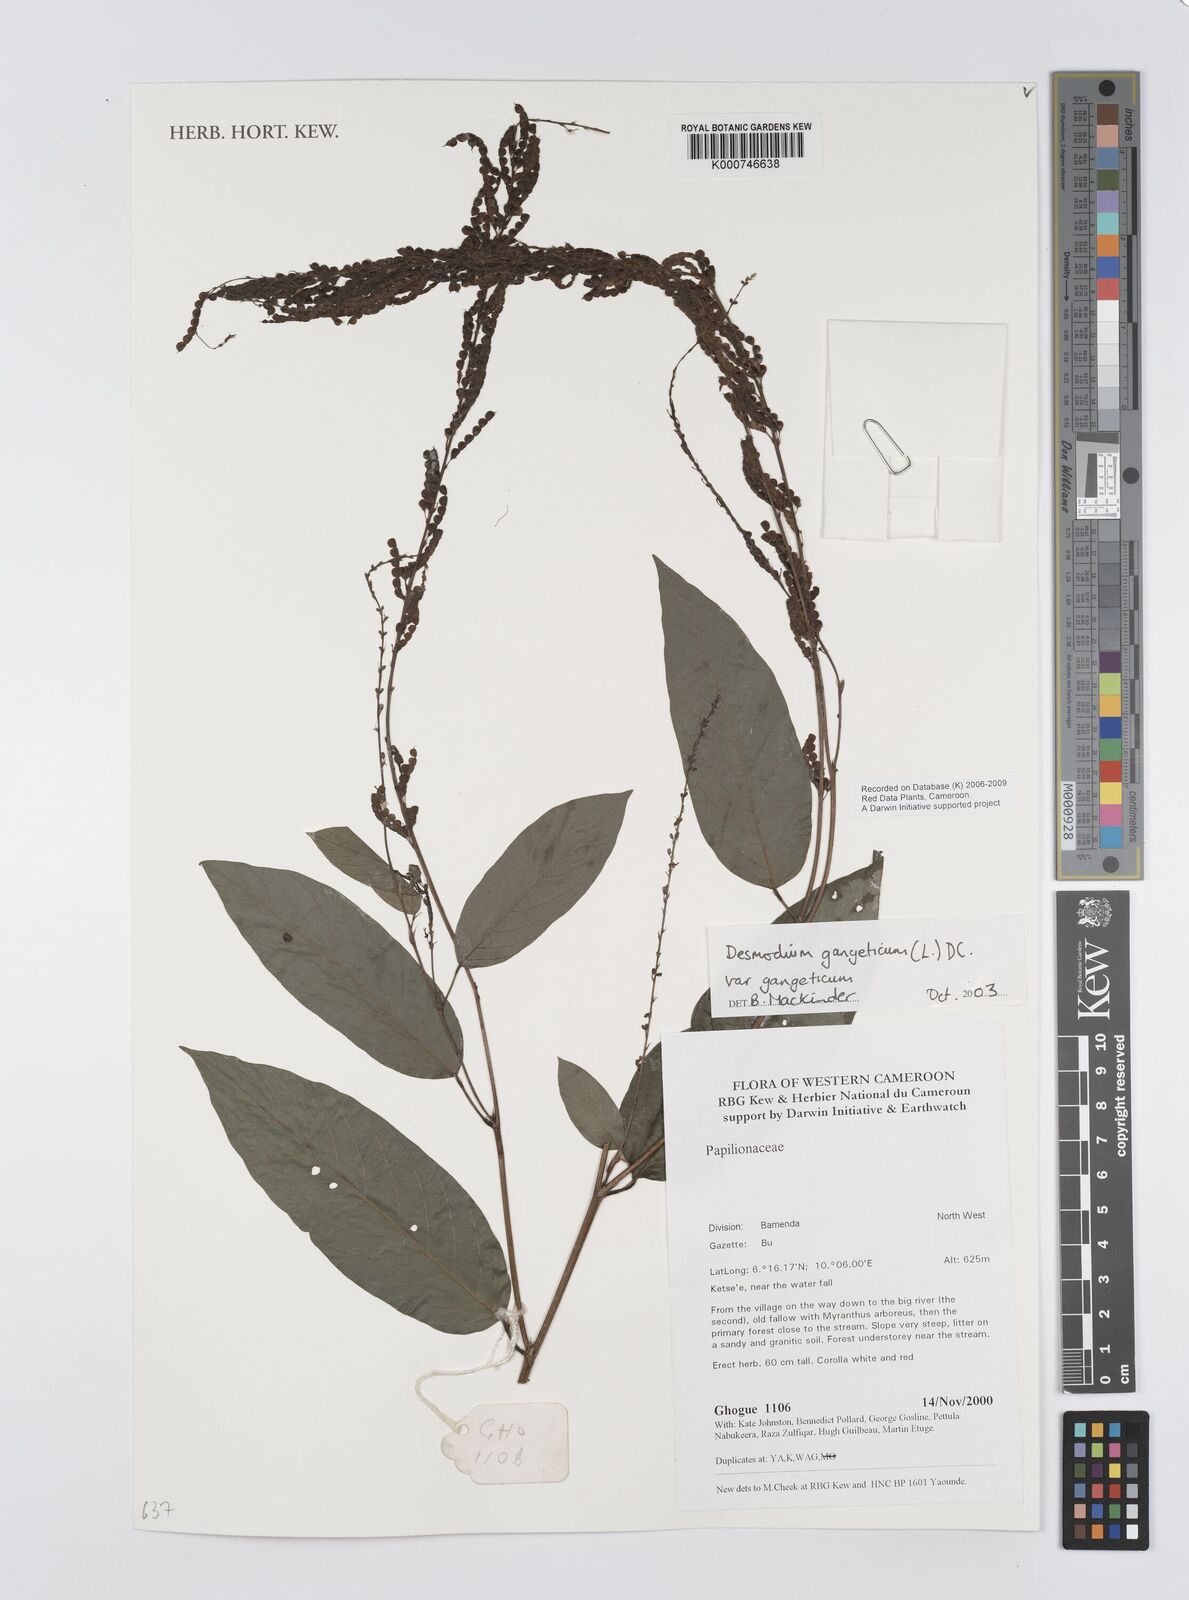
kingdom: Plantae
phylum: Tracheophyta
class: Magnoliopsida
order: Fabales
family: Fabaceae
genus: Pleurolobus
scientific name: Pleurolobus gangeticus
